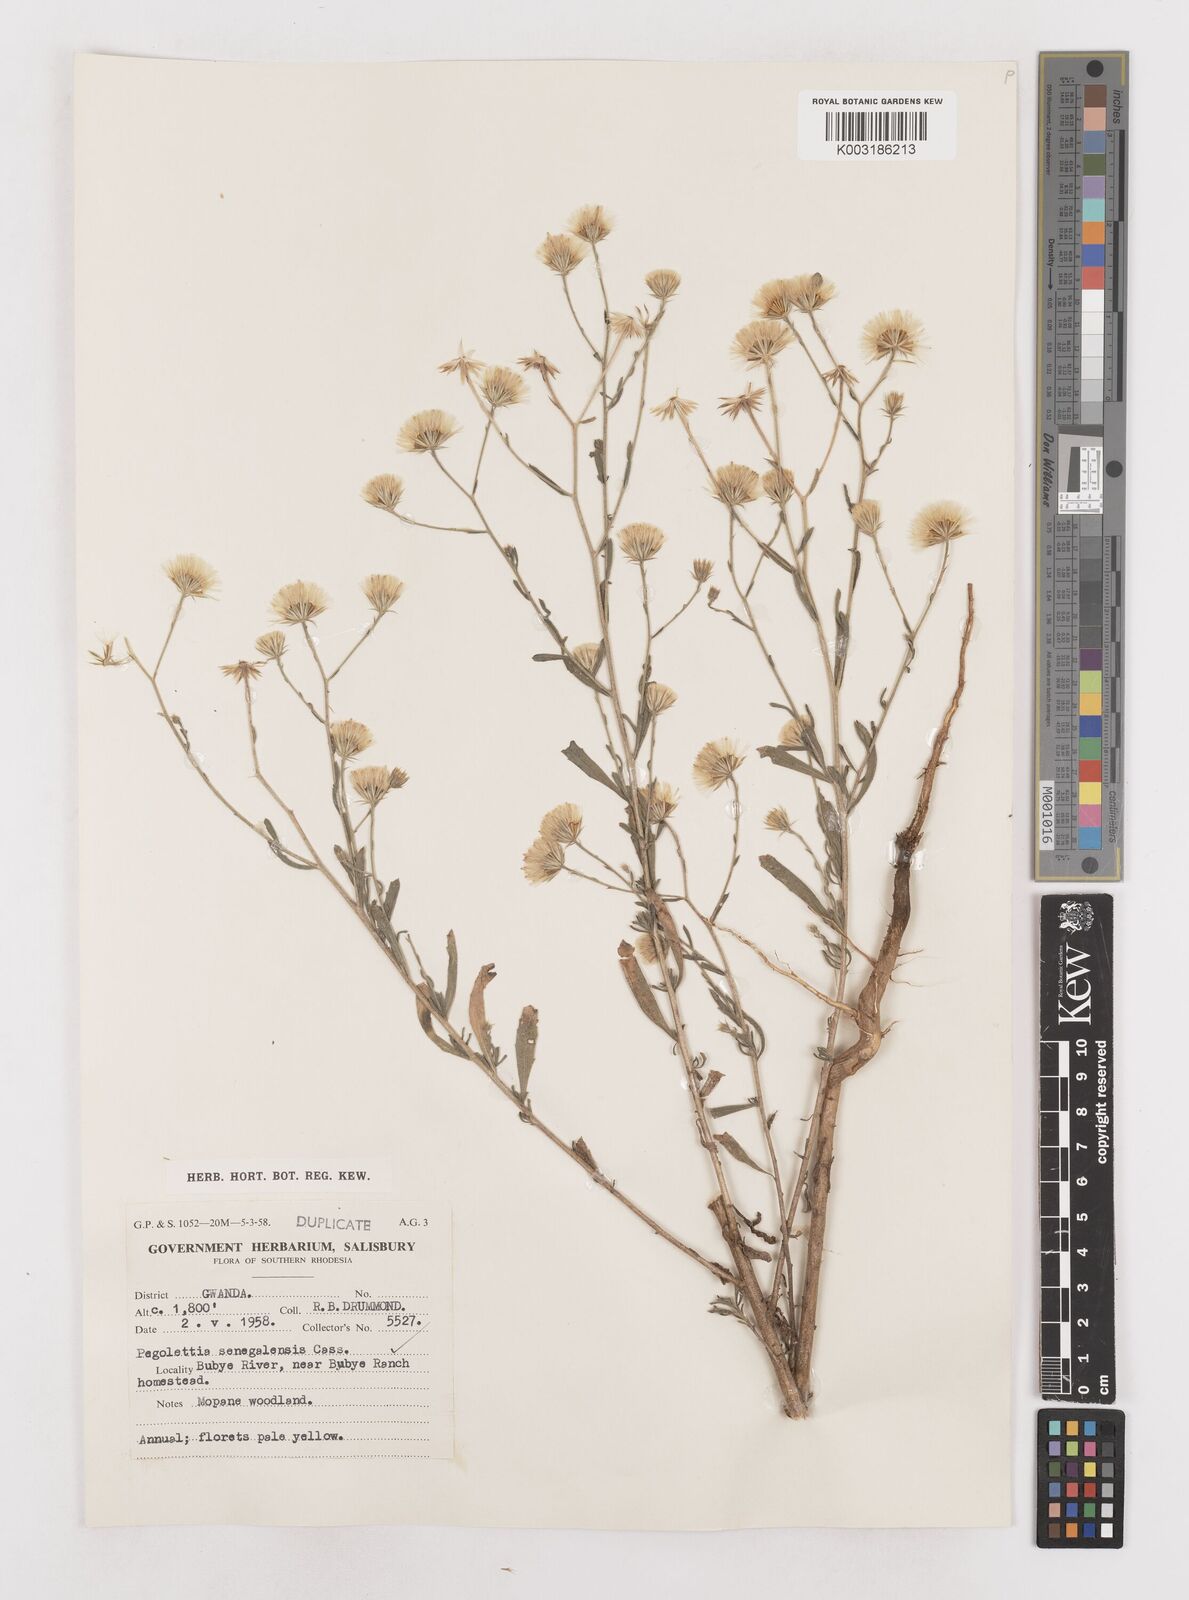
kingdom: Plantae
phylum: Tracheophyta
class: Magnoliopsida
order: Asterales
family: Asteraceae
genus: Pegolettia
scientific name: Pegolettia senegalensis
